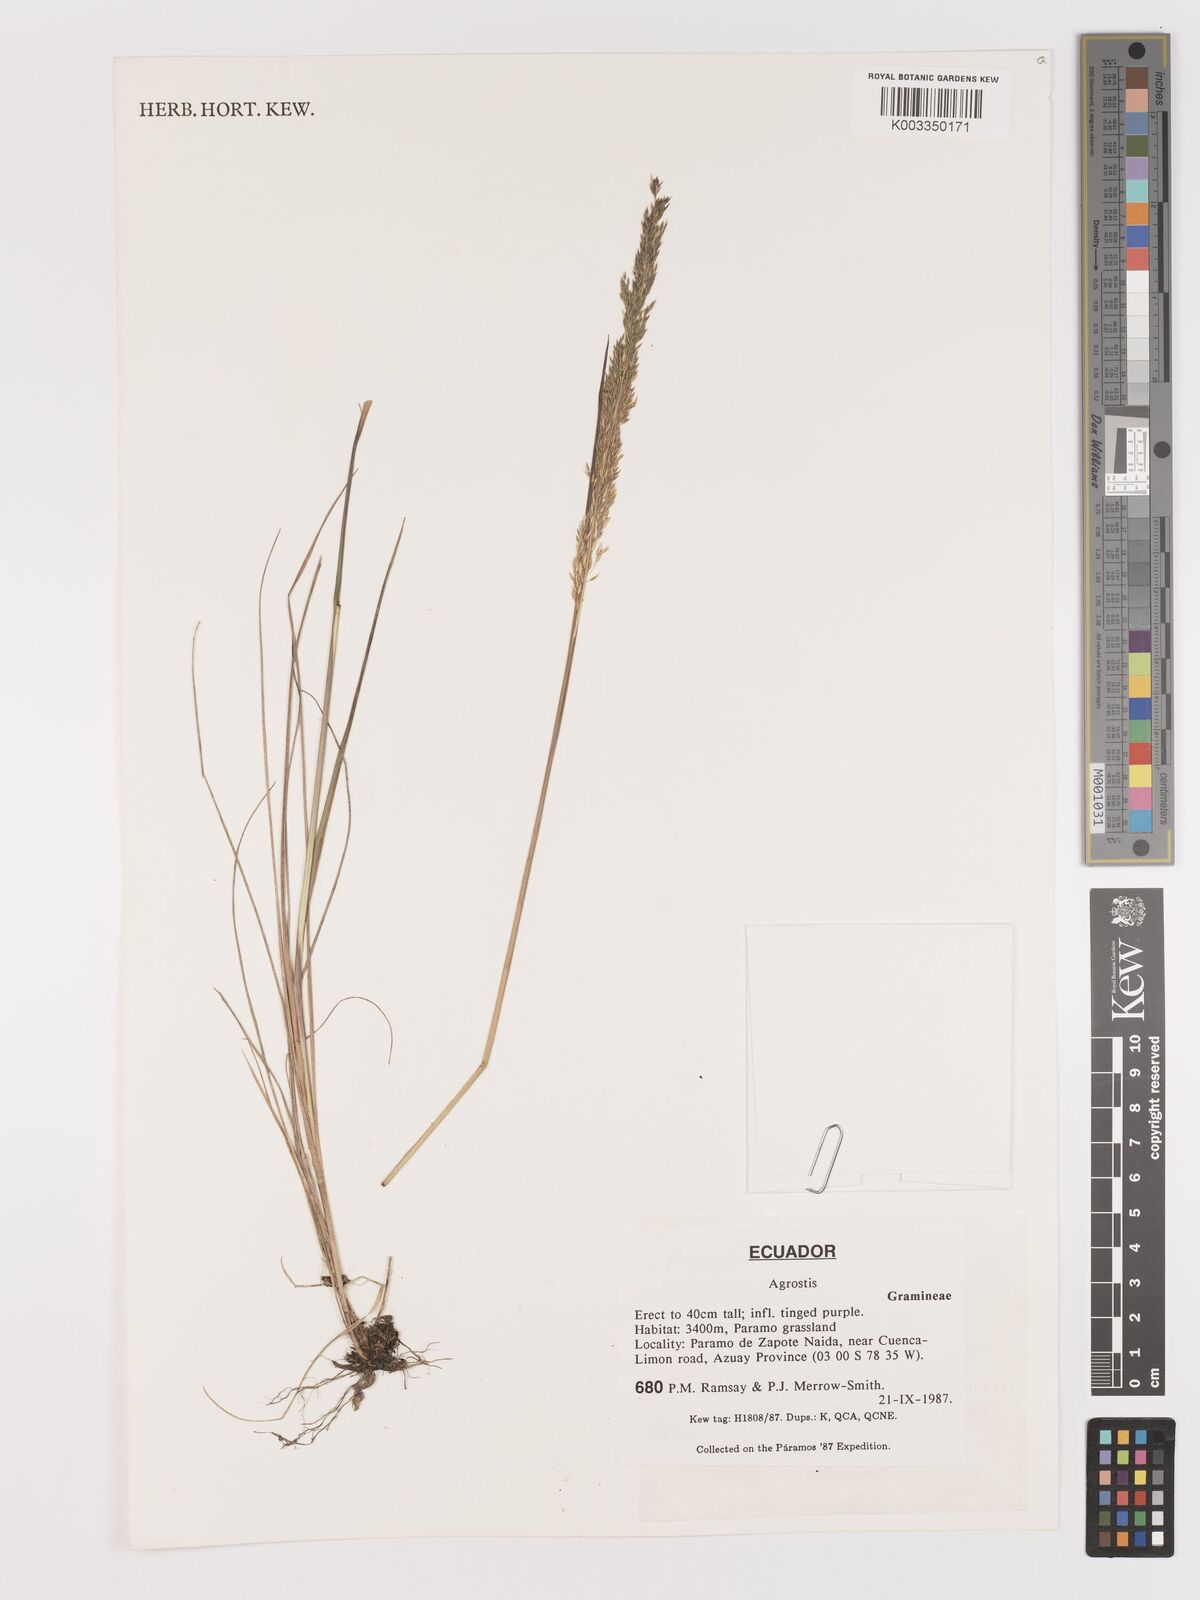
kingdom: Plantae
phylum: Tracheophyta
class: Liliopsida
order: Poales
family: Poaceae
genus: Agrostis
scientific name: Agrostis
